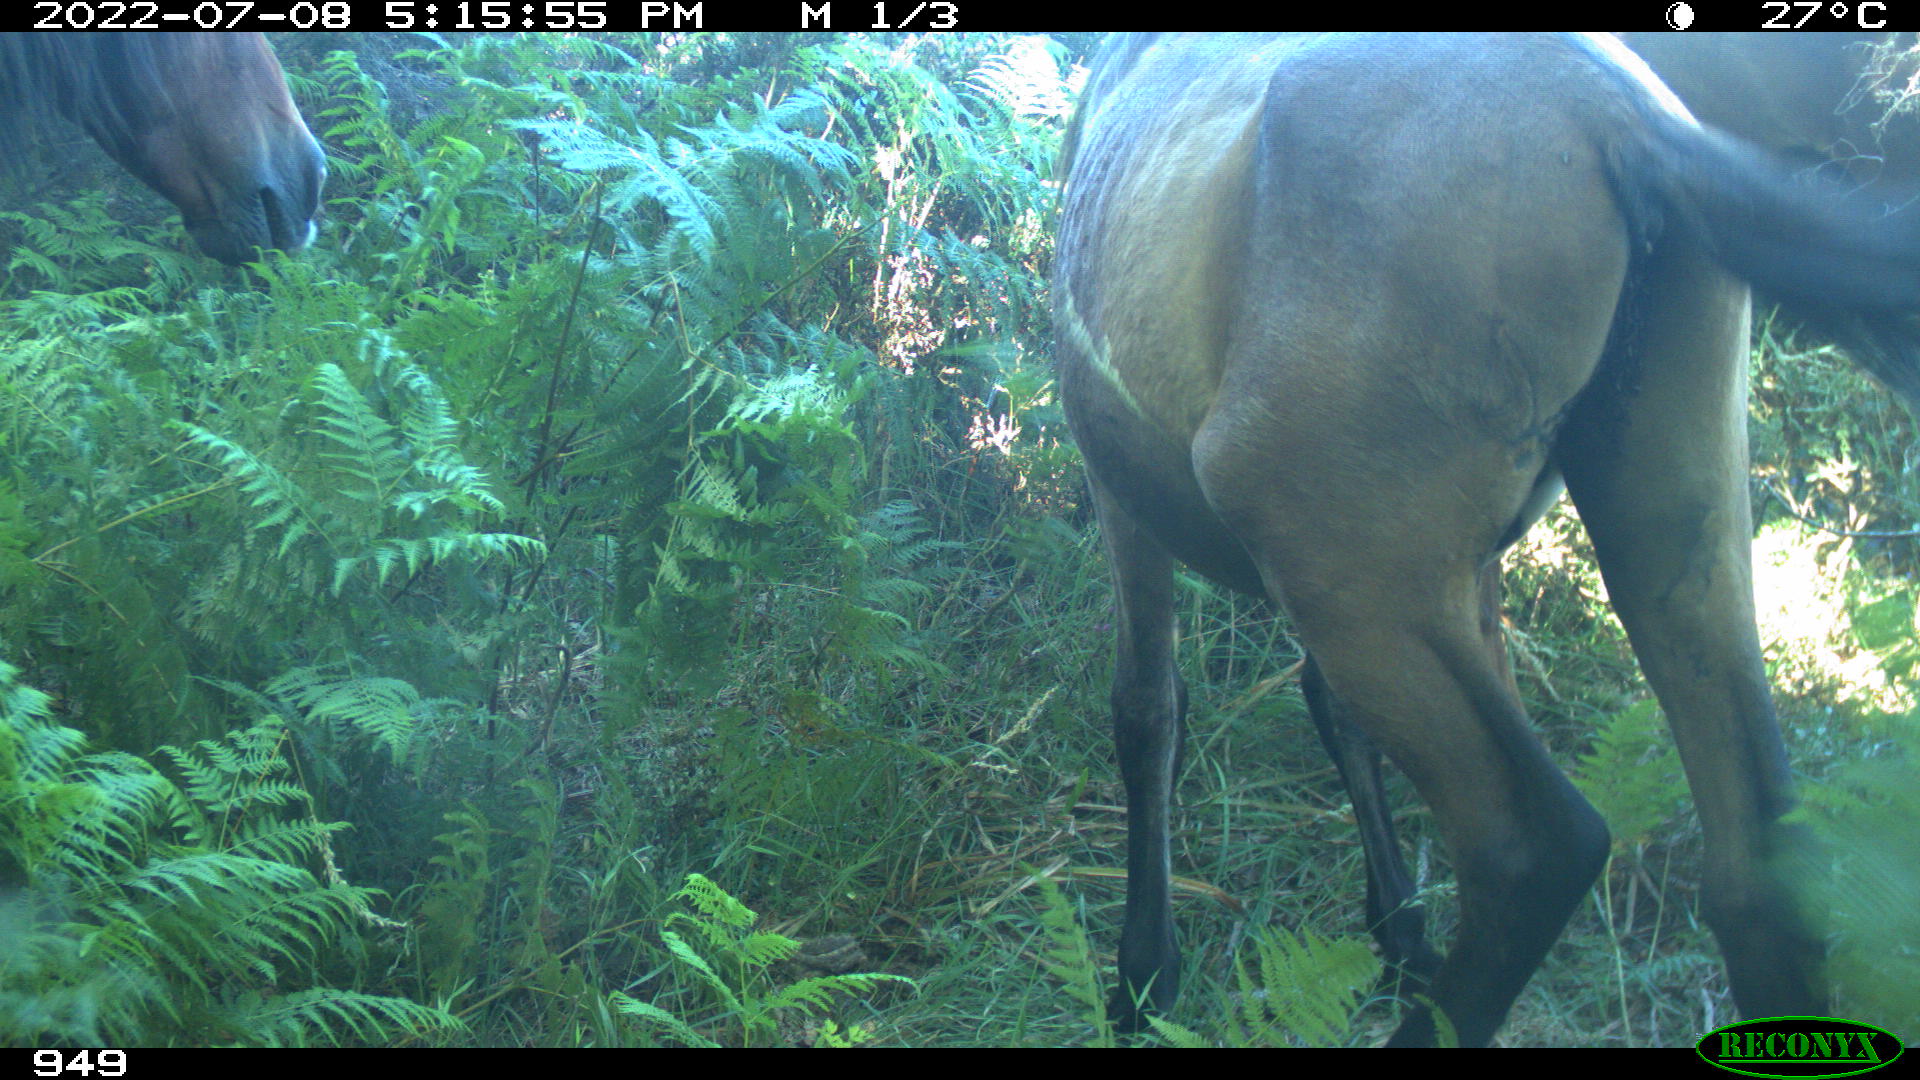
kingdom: Animalia
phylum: Chordata
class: Mammalia
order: Perissodactyla
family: Equidae
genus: Equus
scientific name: Equus caballus
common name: Horse
